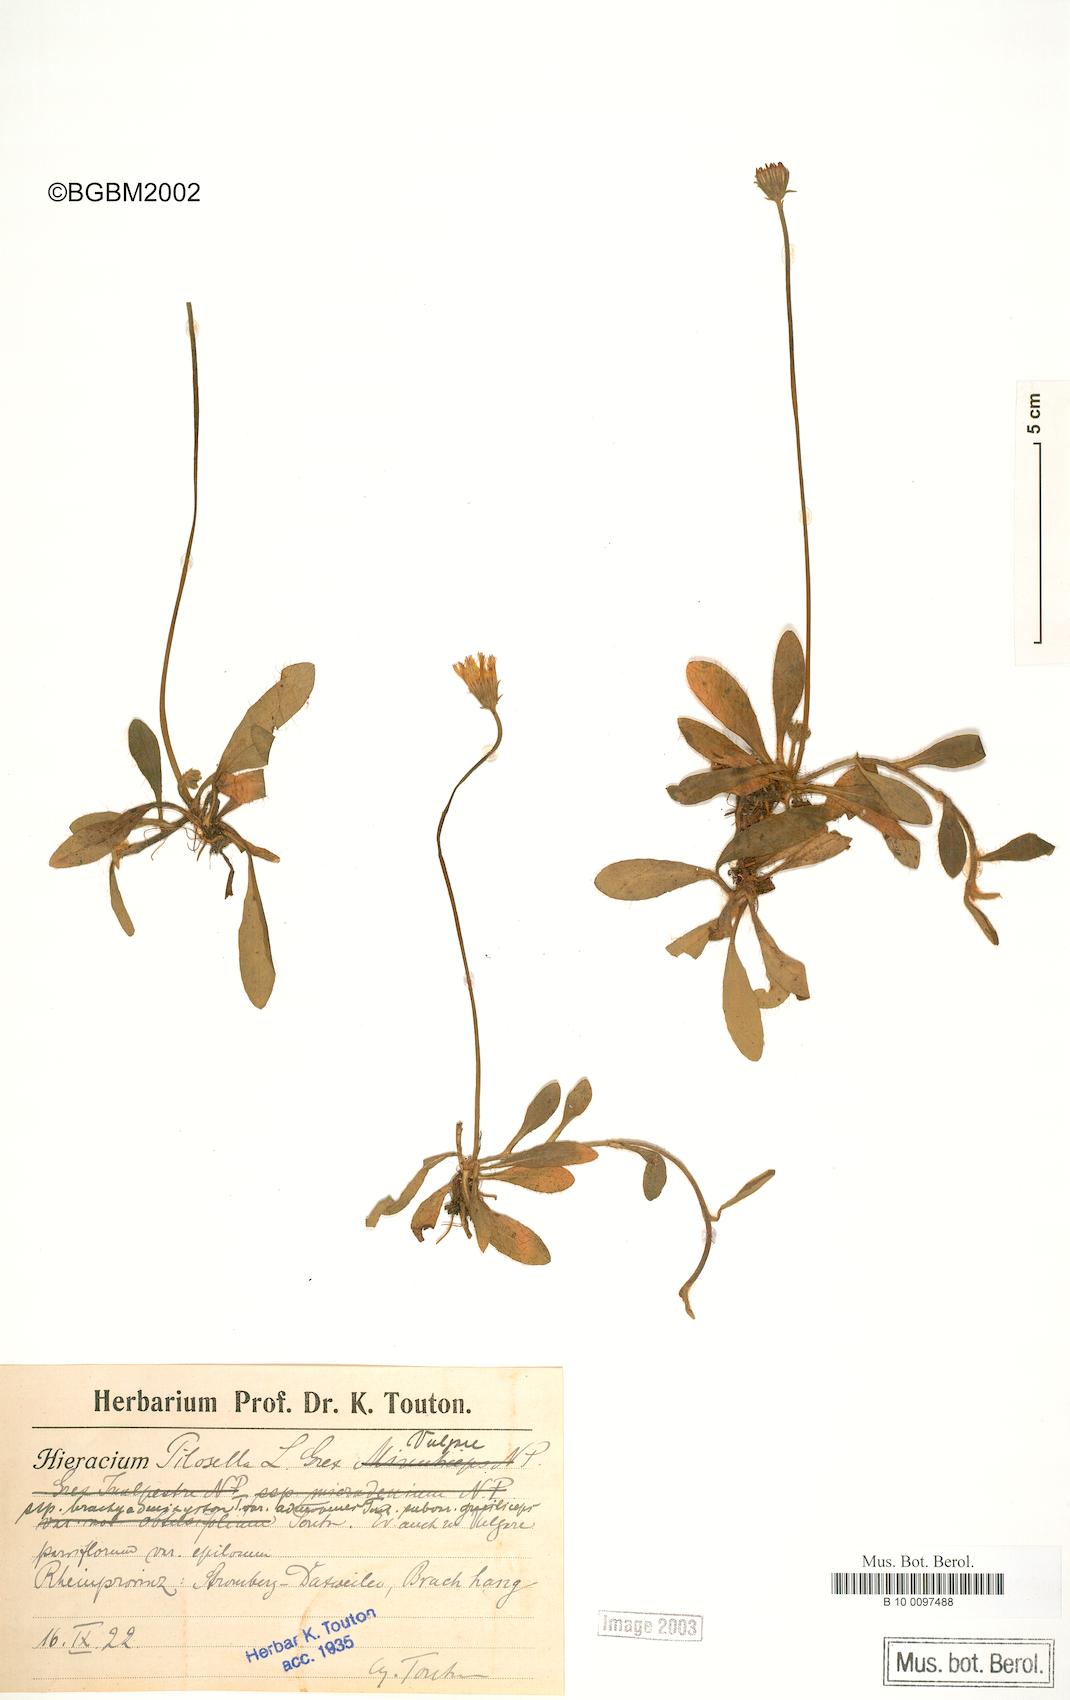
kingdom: Plantae
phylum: Tracheophyta
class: Magnoliopsida
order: Asterales
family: Asteraceae
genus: Pilosella
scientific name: Pilosella officinarum
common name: Mouse-ear hawkweed
